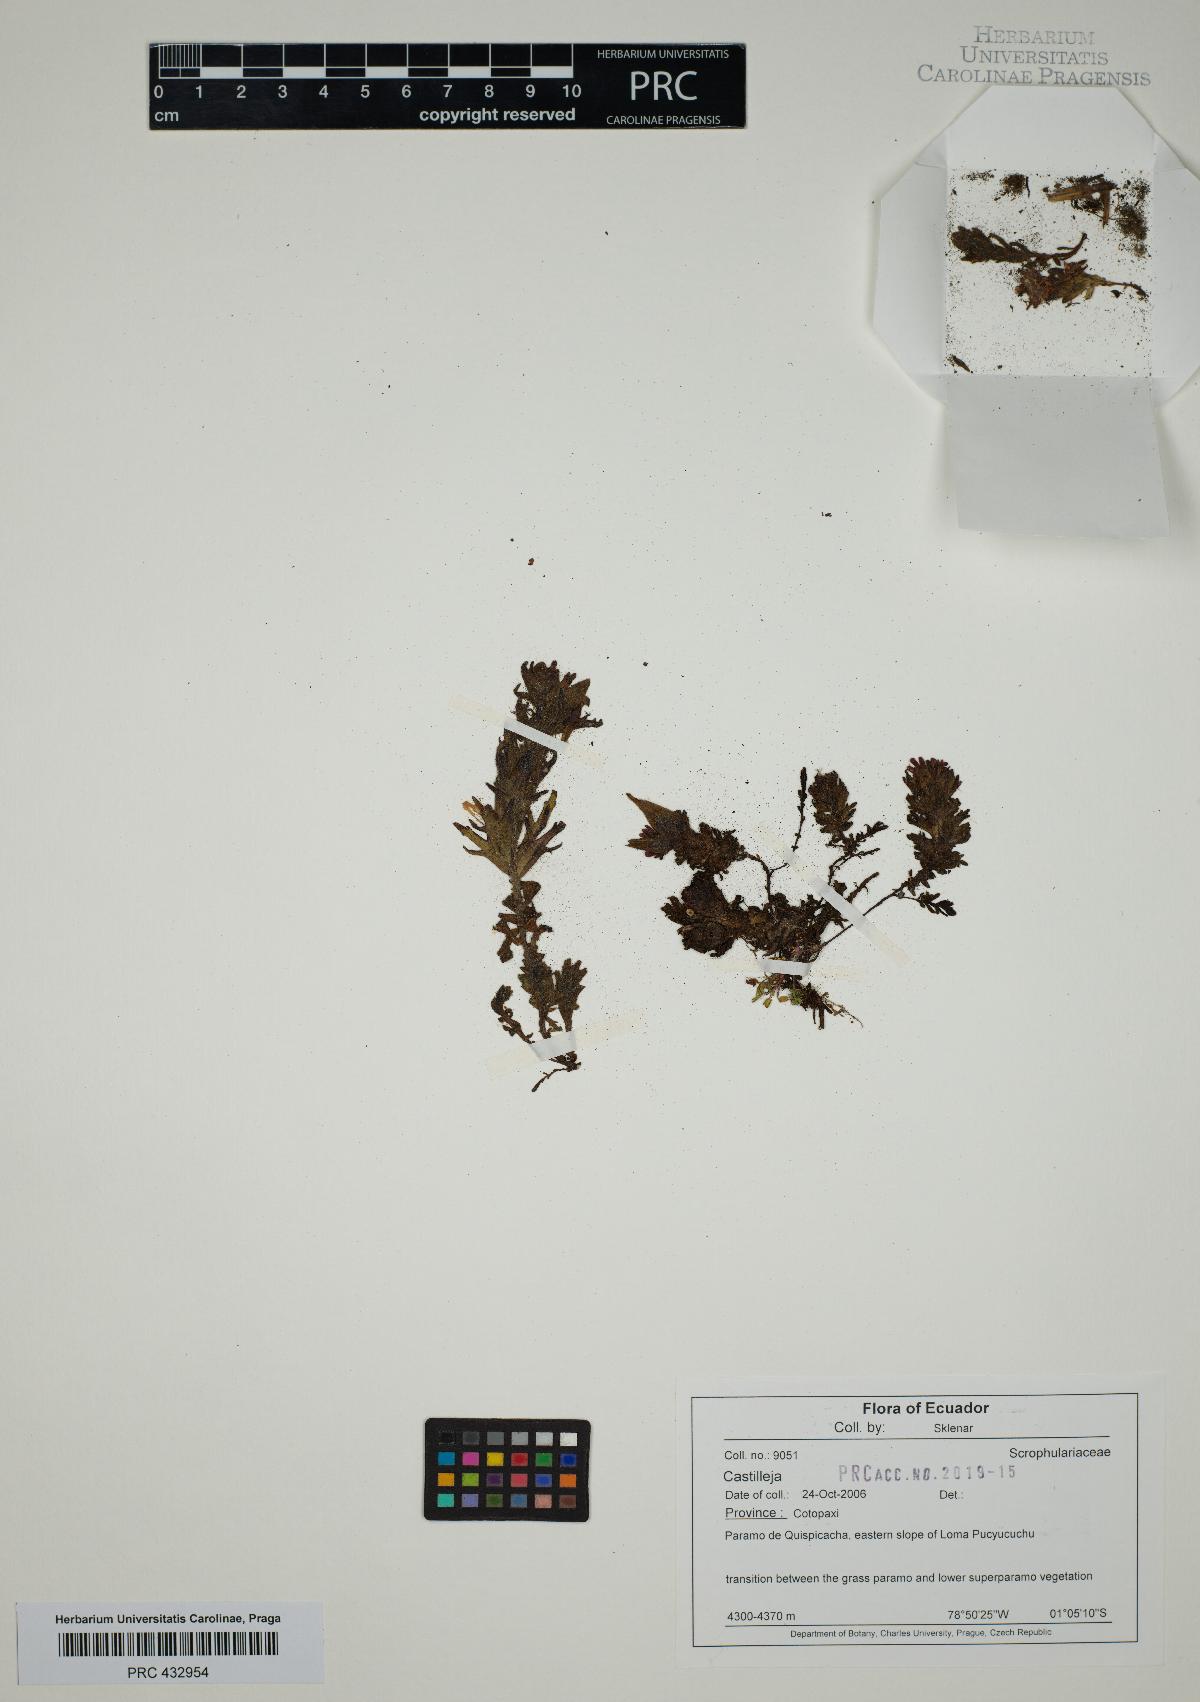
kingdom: Plantae
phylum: Tracheophyta
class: Magnoliopsida
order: Lamiales
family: Orobanchaceae
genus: Castilleja
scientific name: Castilleja
